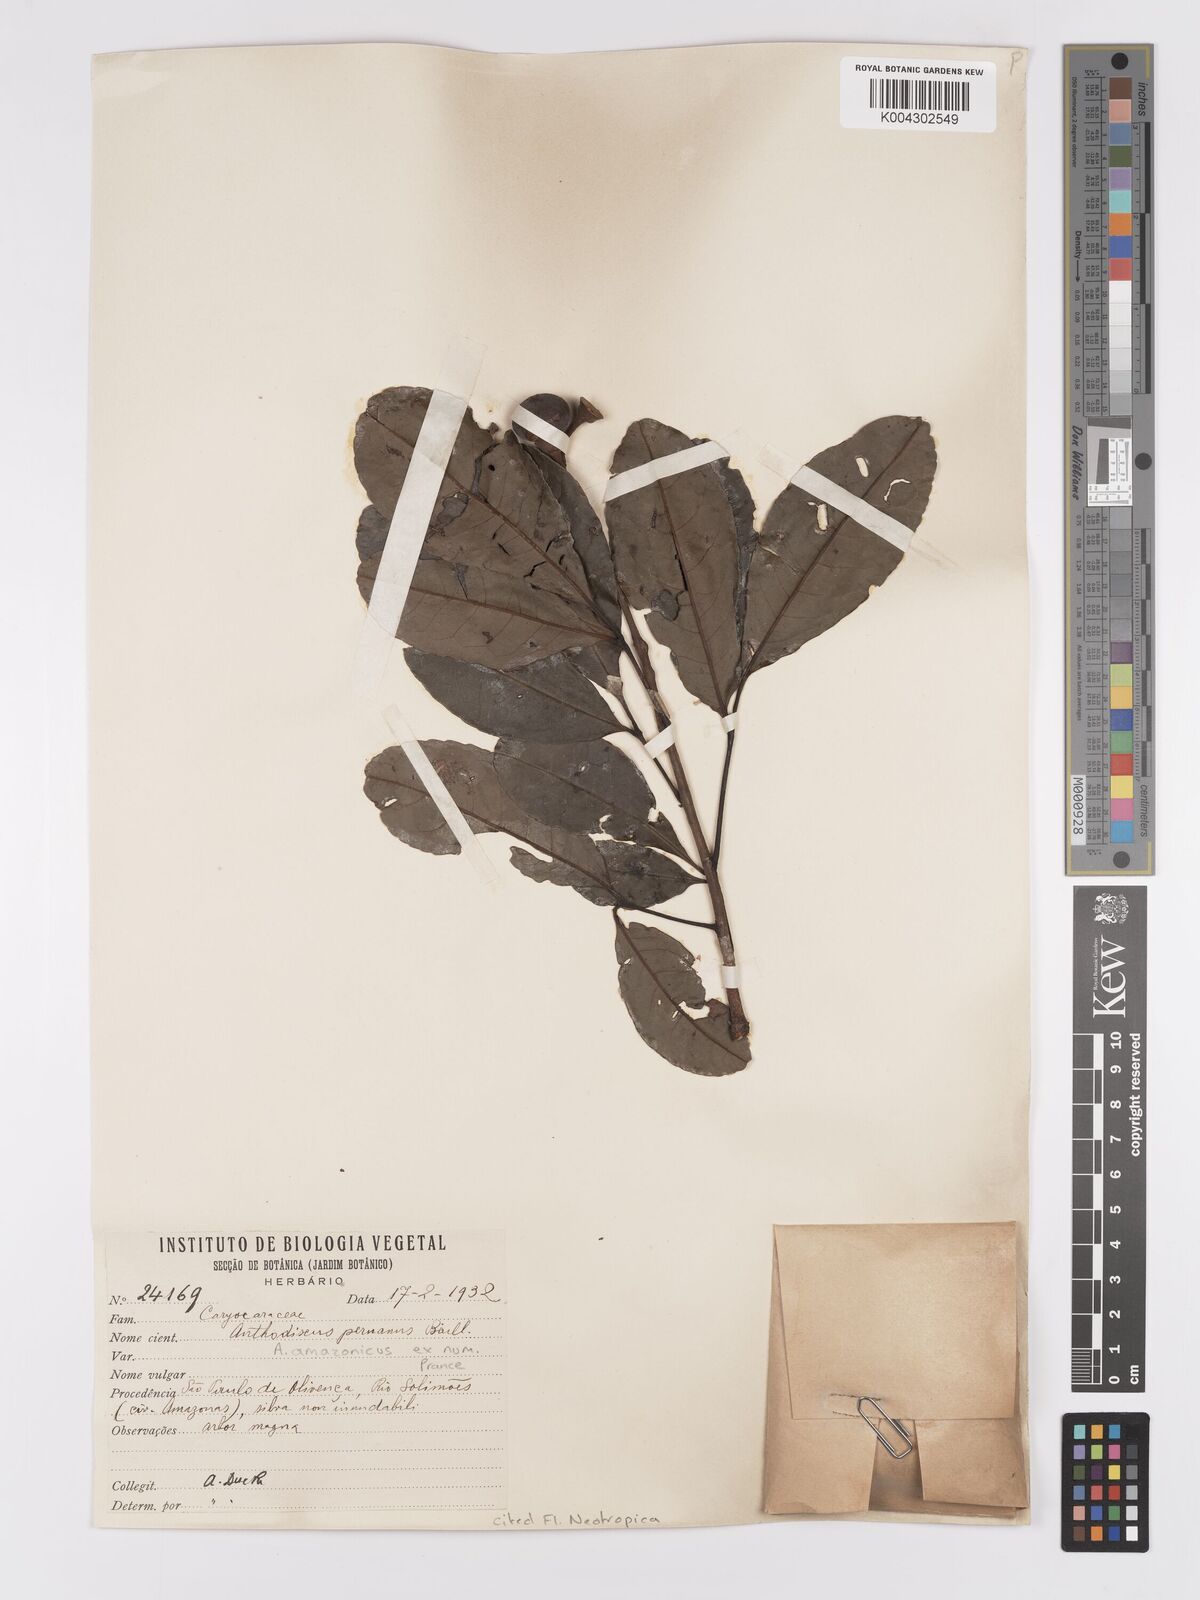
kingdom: Plantae
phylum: Tracheophyta
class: Magnoliopsida
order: Malpighiales
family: Caryocaraceae
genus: Anthodiscus
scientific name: Anthodiscus amazonicus
